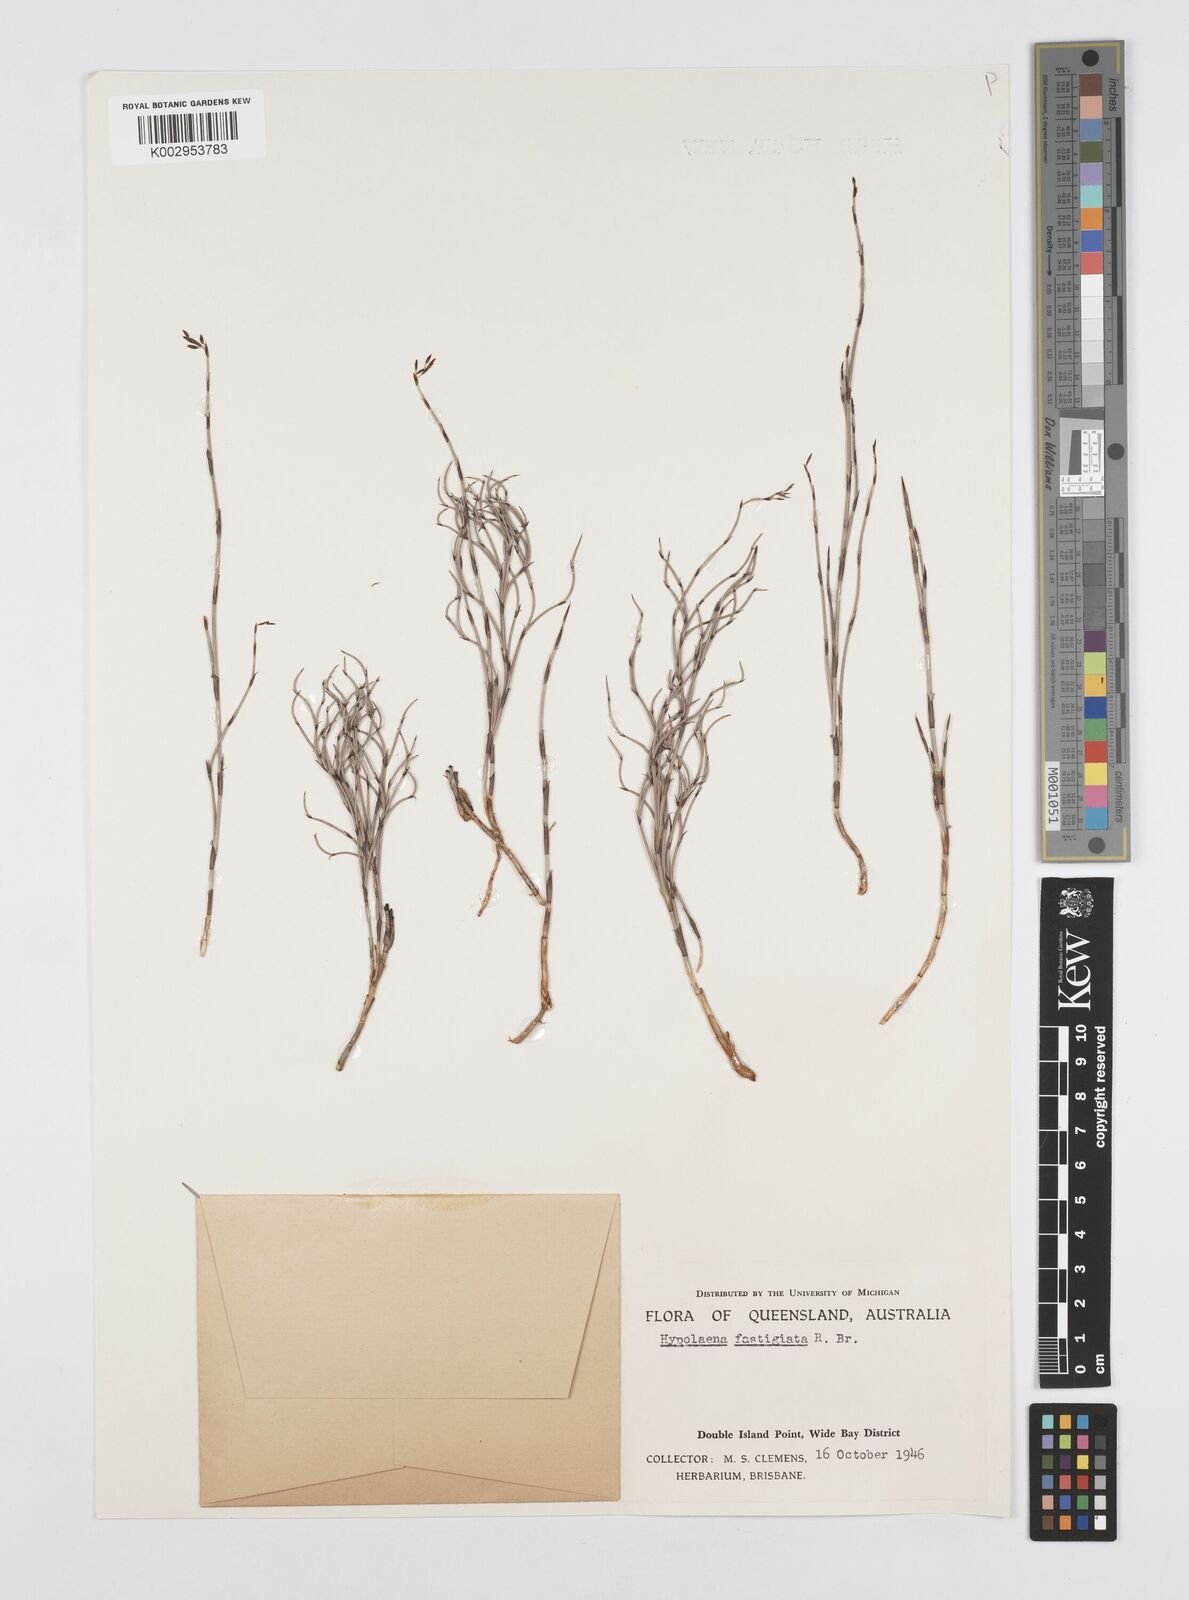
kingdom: Plantae
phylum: Tracheophyta
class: Liliopsida
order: Poales
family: Restionaceae
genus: Hypolaena
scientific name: Hypolaena fastigiata
